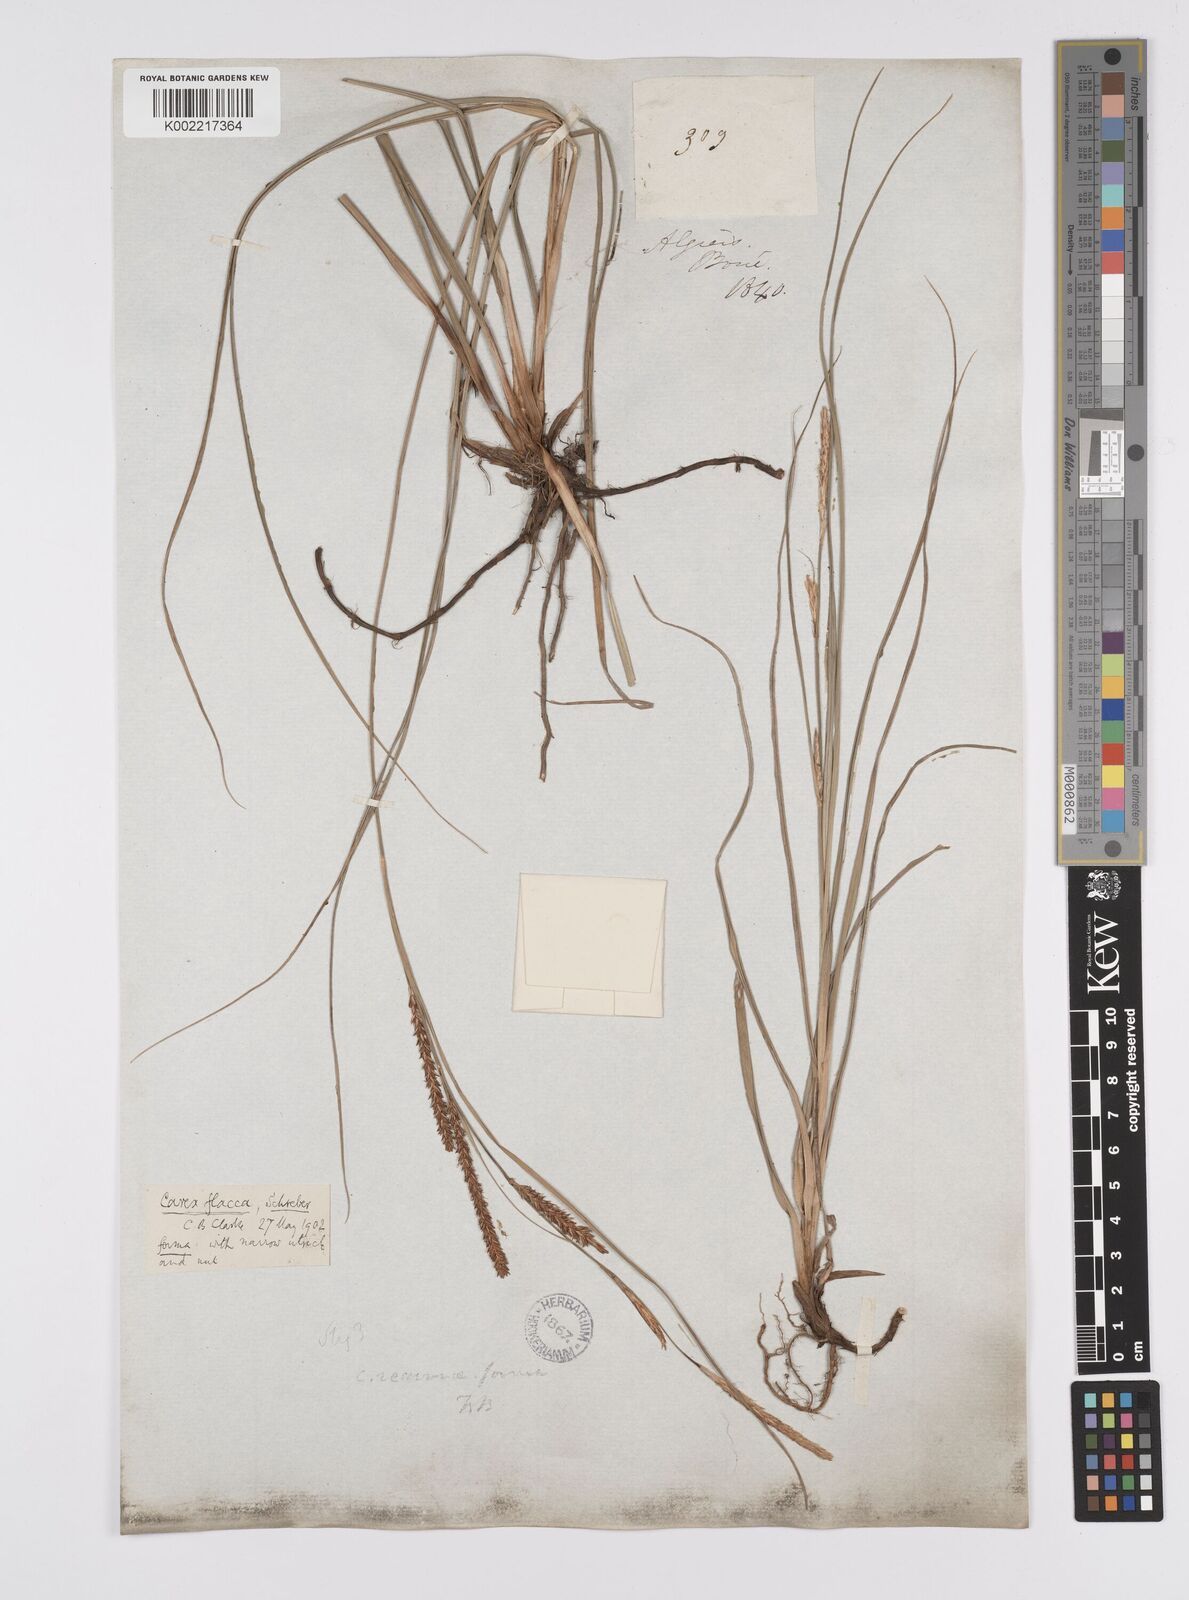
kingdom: Plantae
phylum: Tracheophyta
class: Liliopsida
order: Poales
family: Cyperaceae
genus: Carex
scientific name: Carex flacca
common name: Glaucous sedge
